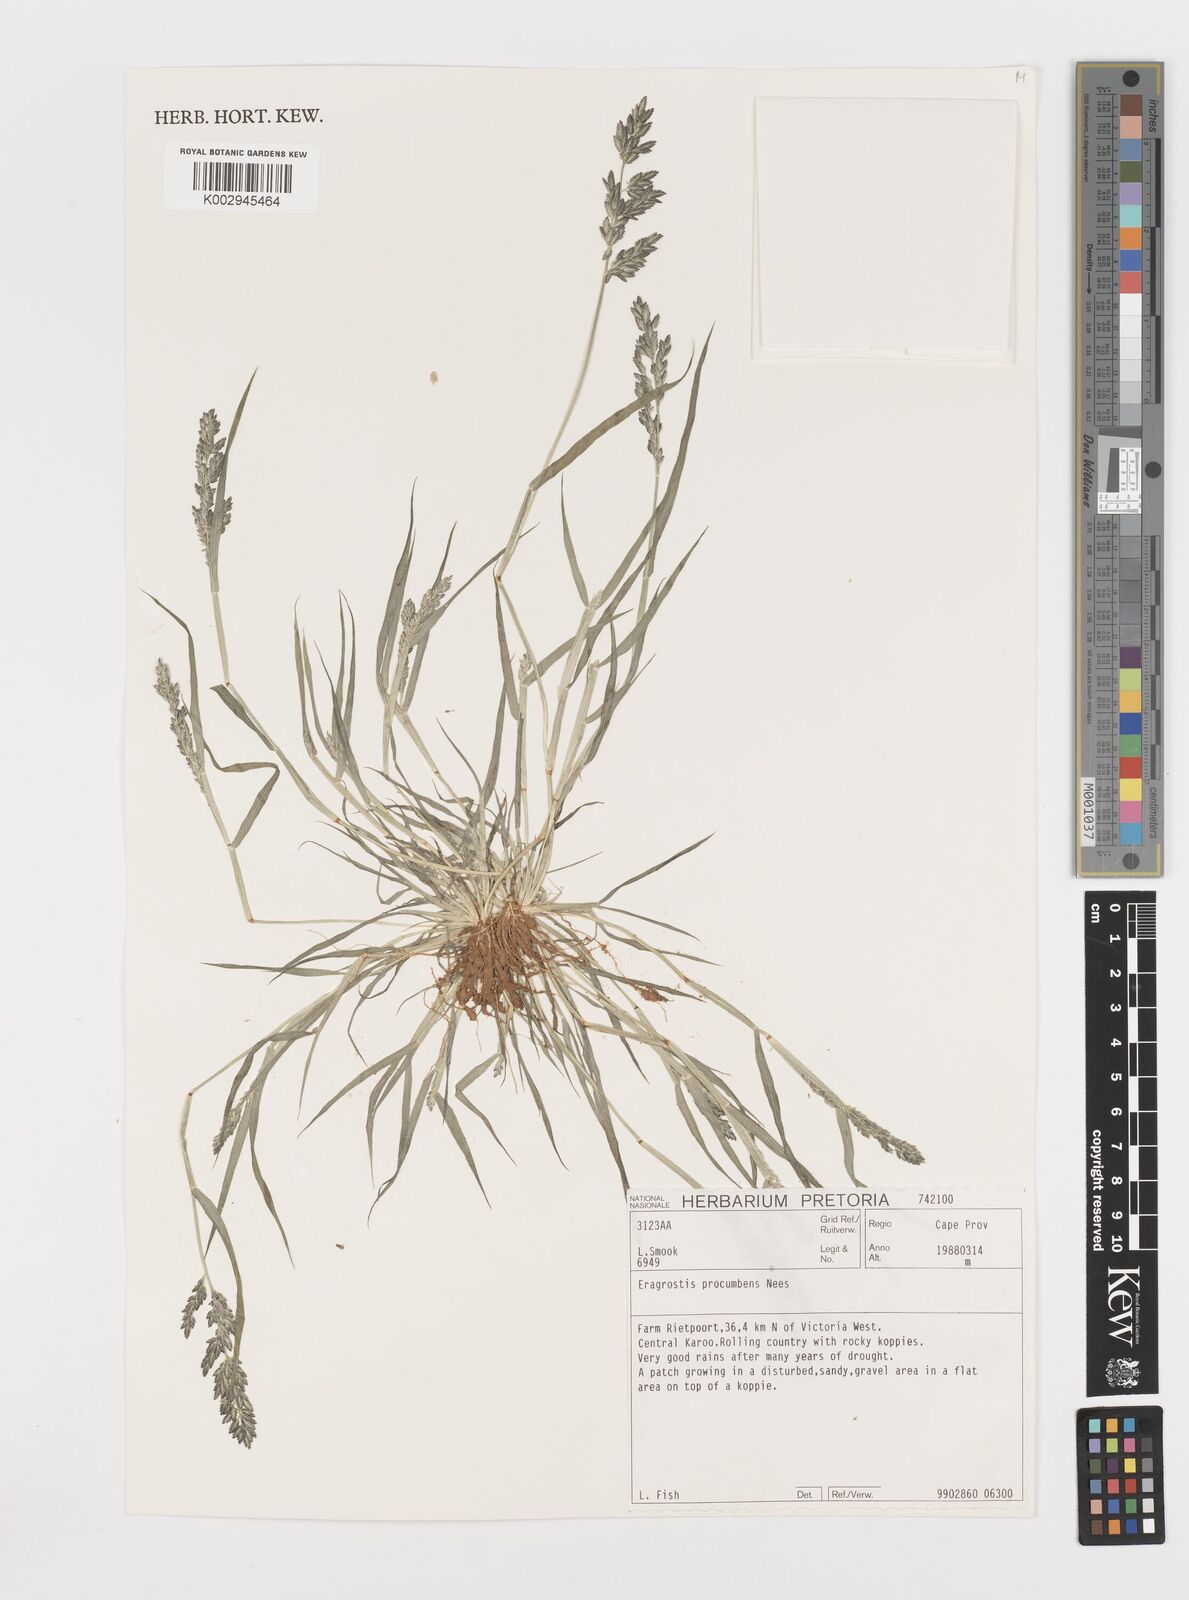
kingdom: Plantae
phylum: Tracheophyta
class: Liliopsida
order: Poales
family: Poaceae
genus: Eragrostis
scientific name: Eragrostis procumbens
